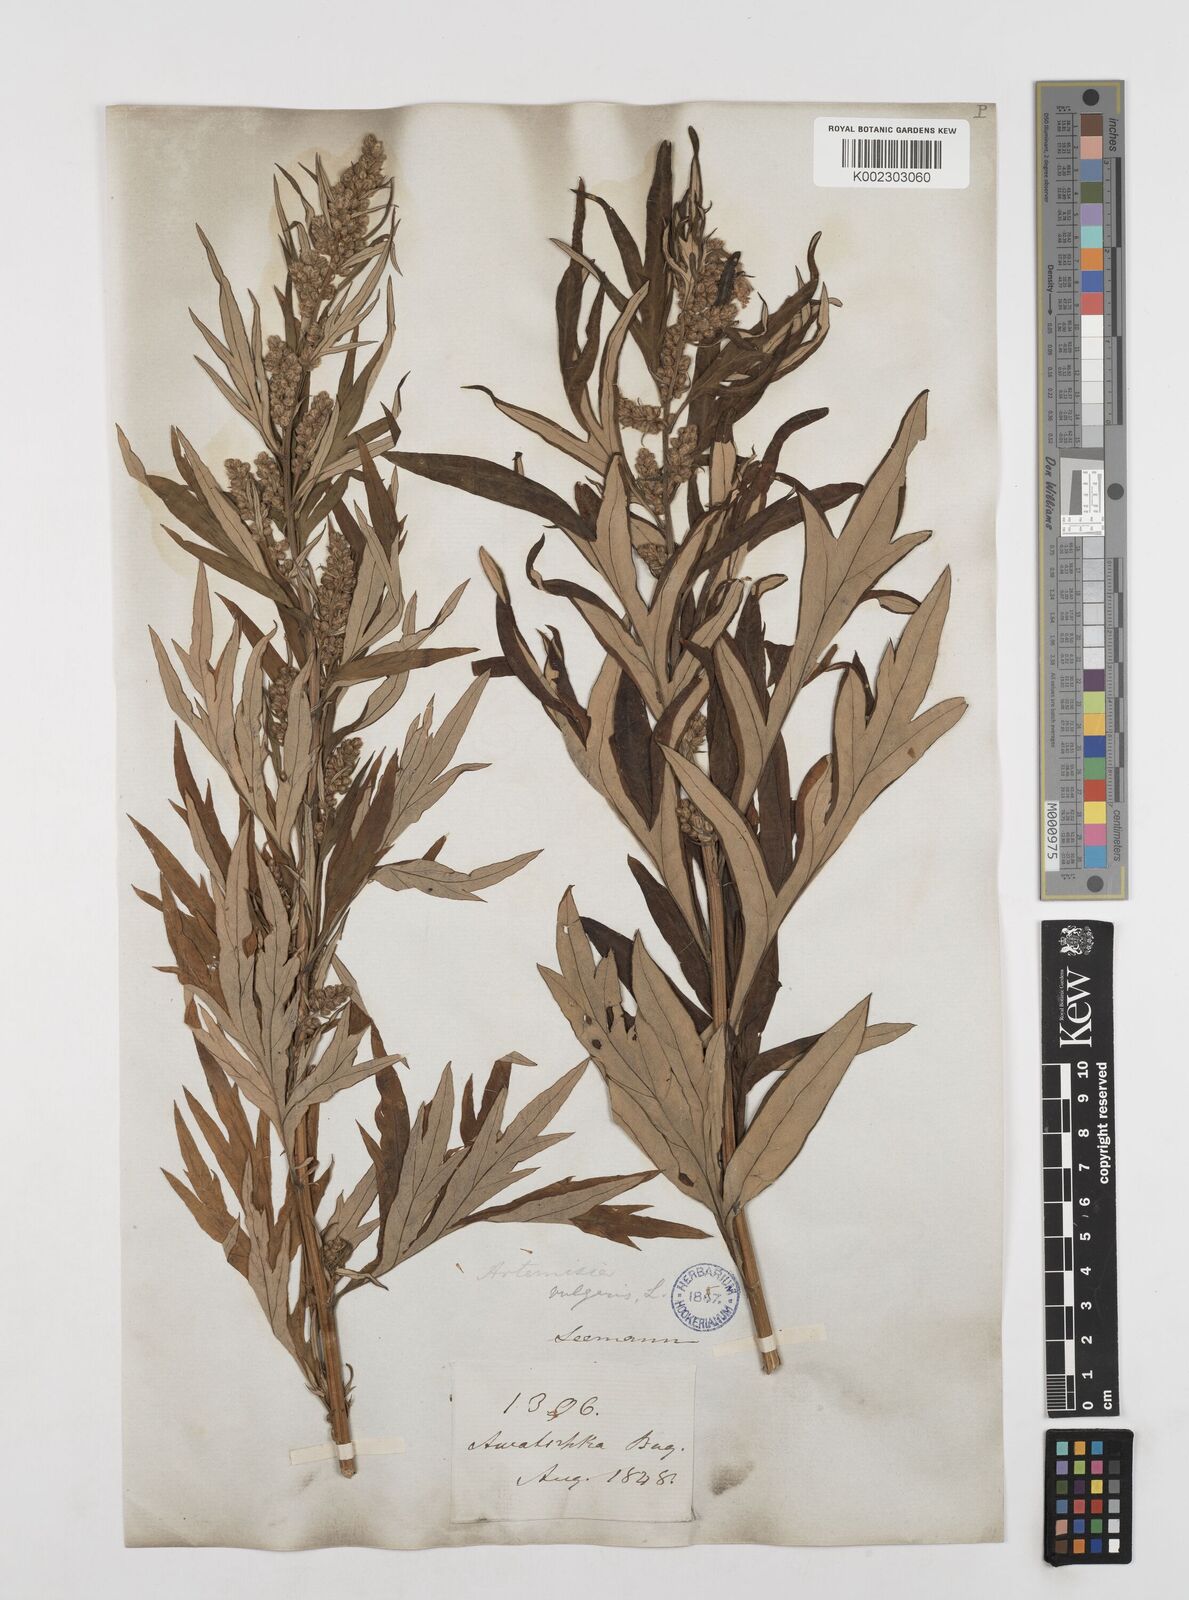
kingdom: Plantae
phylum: Tracheophyta
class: Magnoliopsida
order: Asterales
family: Asteraceae
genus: Artemisia
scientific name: Artemisia tilesii
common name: Aleutian mugwort
